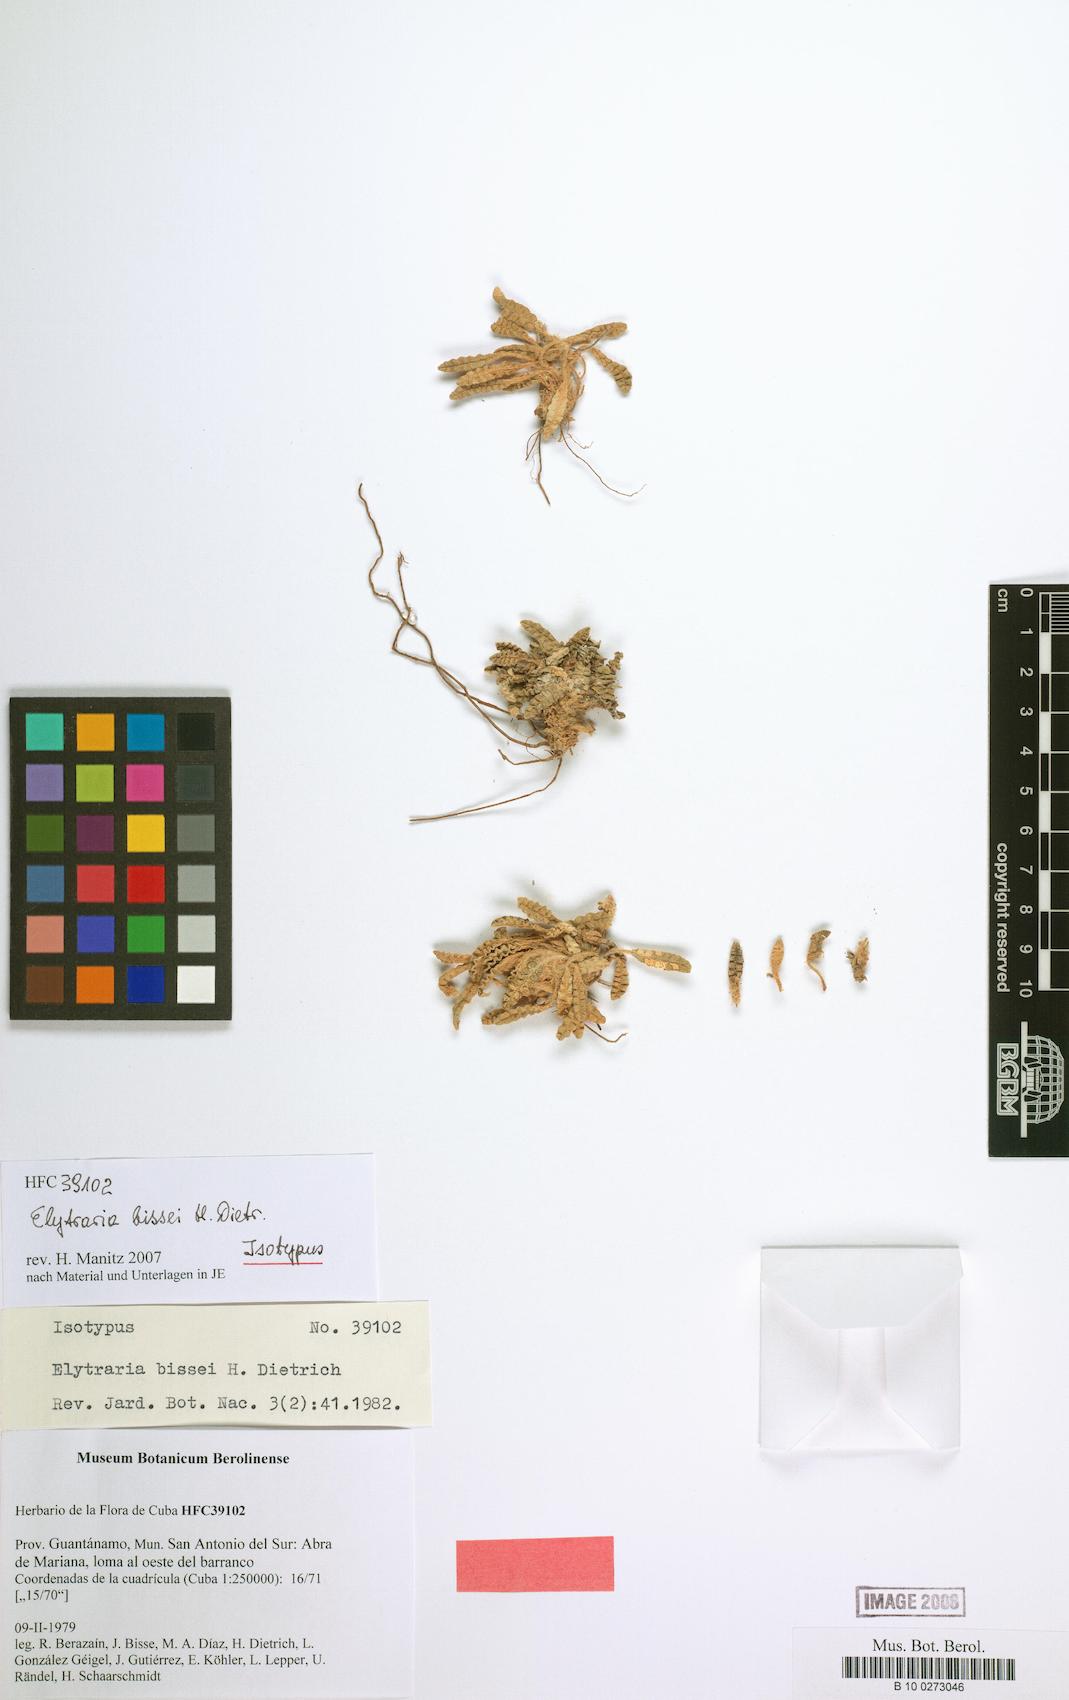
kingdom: Plantae
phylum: Tracheophyta
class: Magnoliopsida
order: Lamiales
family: Acanthaceae
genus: Elytraria
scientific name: Elytraria bissei
